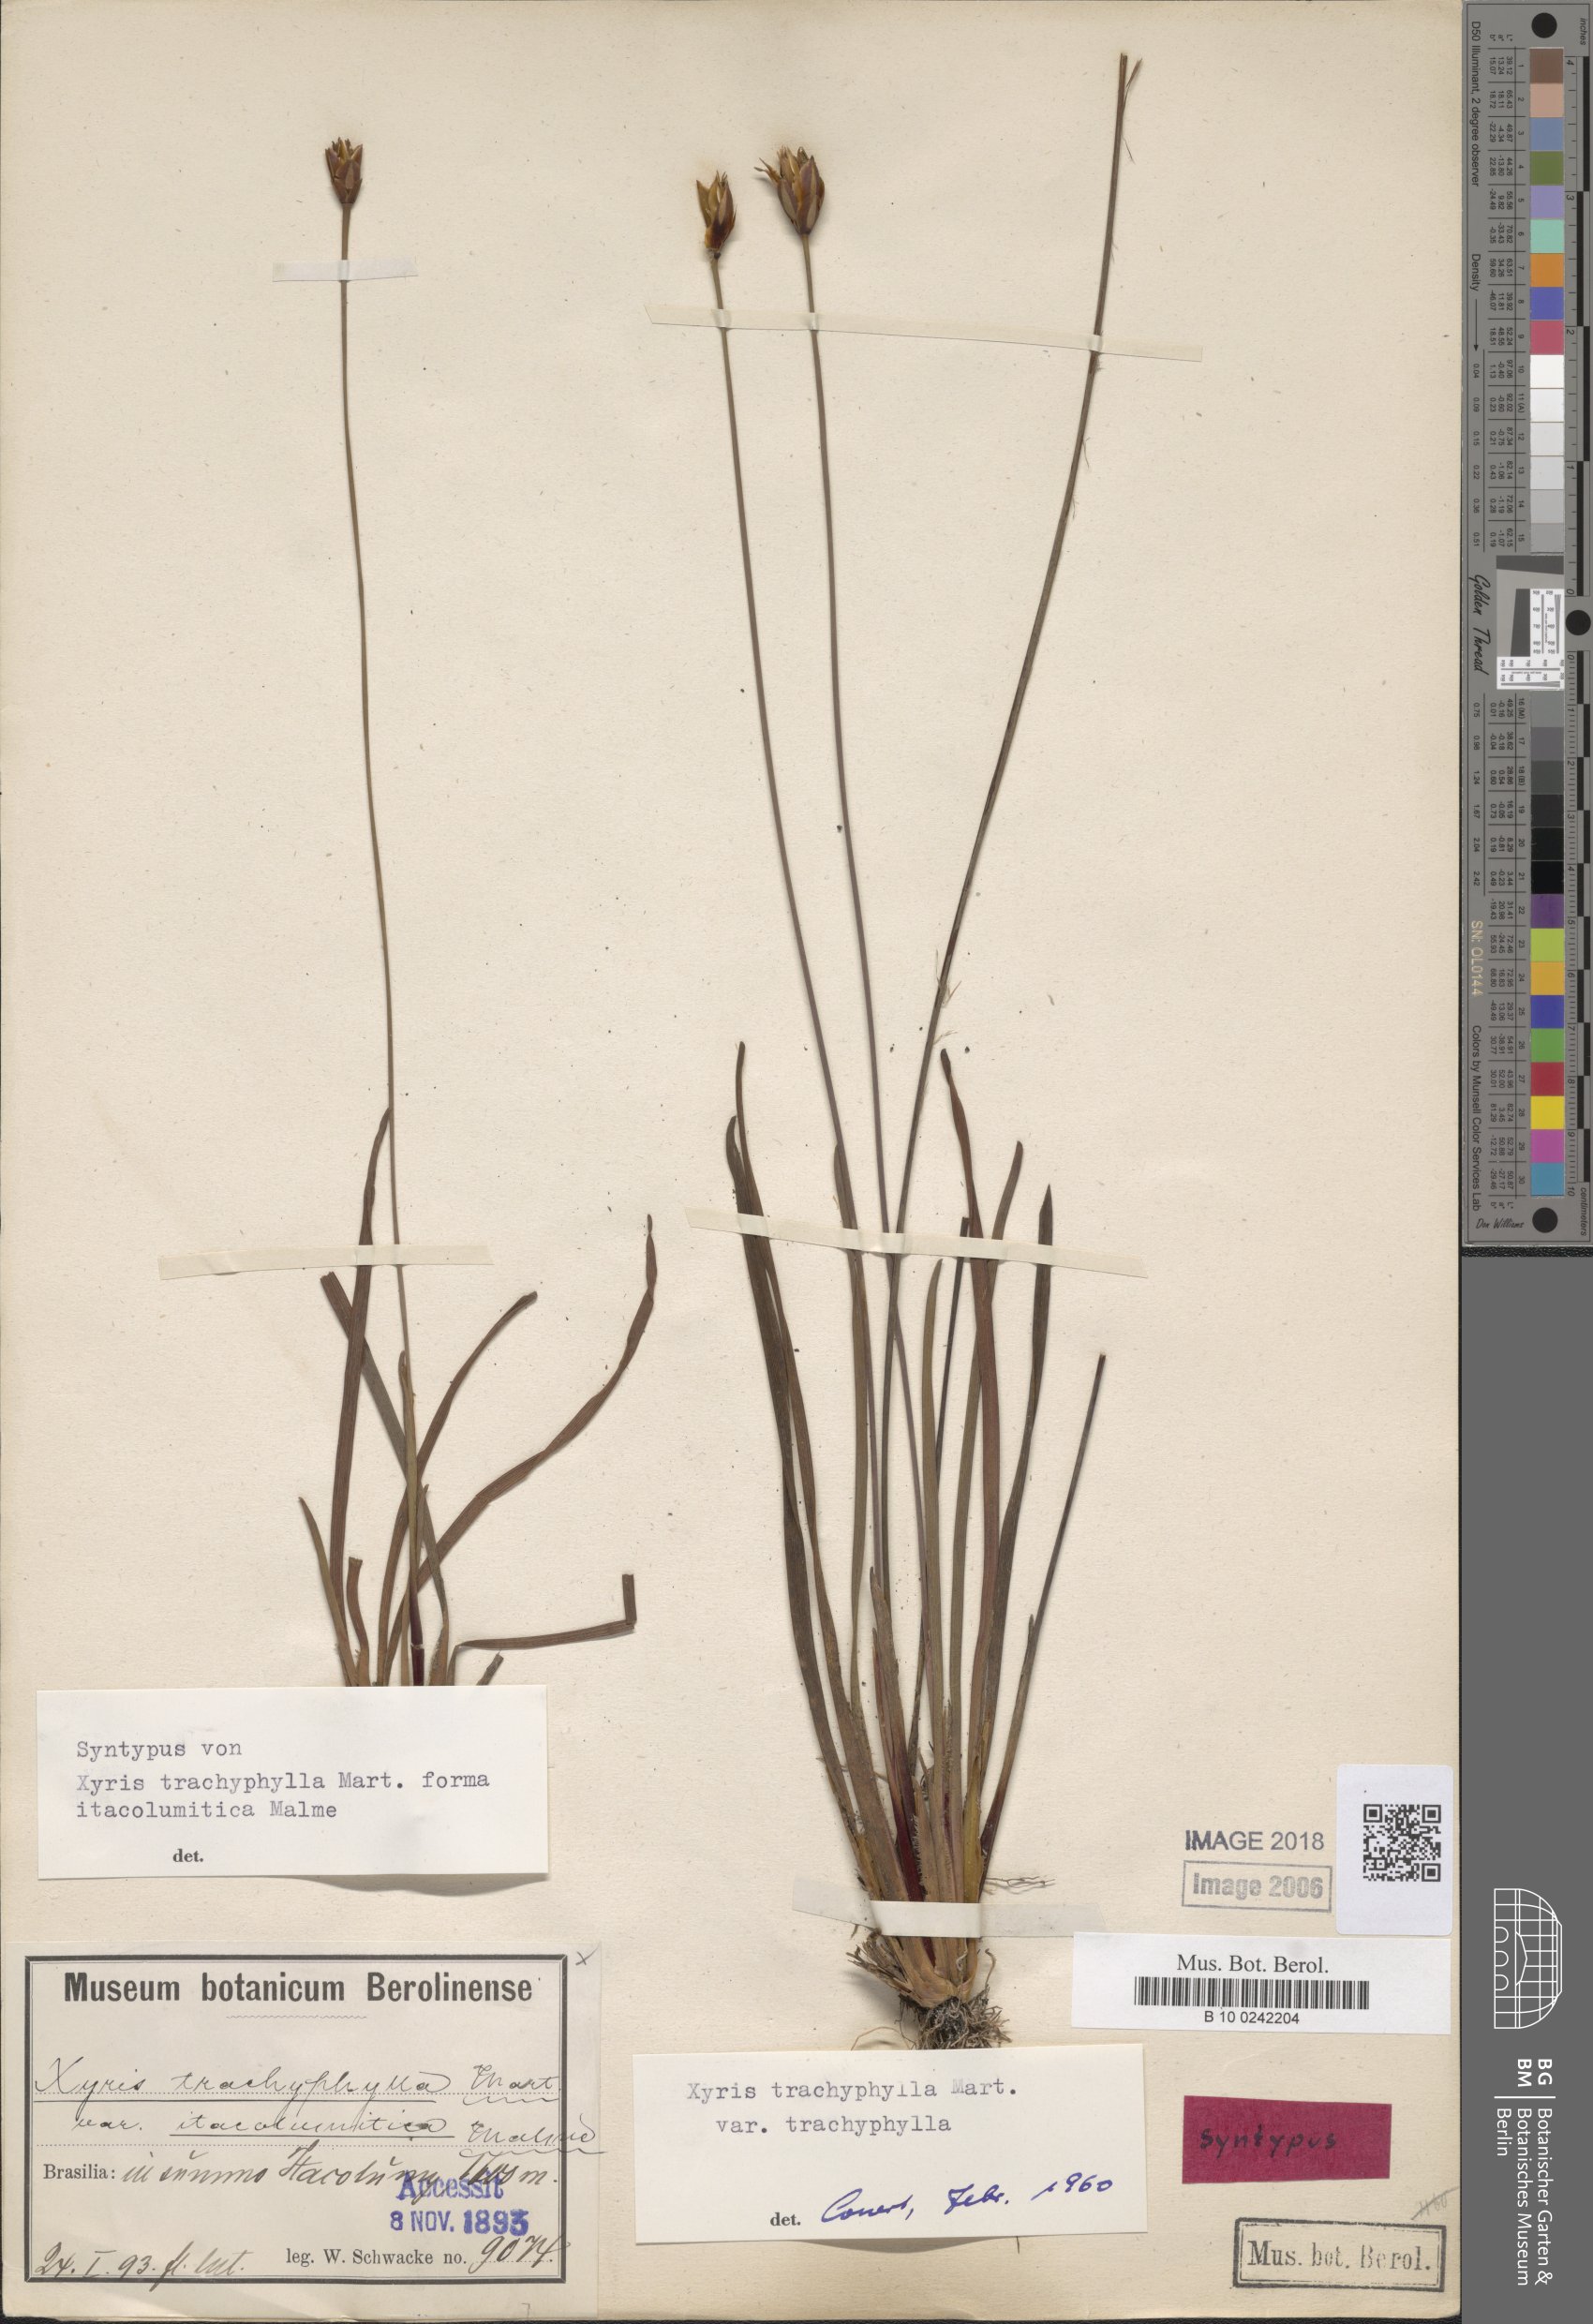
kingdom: Plantae
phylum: Tracheophyta
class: Liliopsida
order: Poales
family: Xyridaceae
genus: Xyris
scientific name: Xyris trachyphylla
